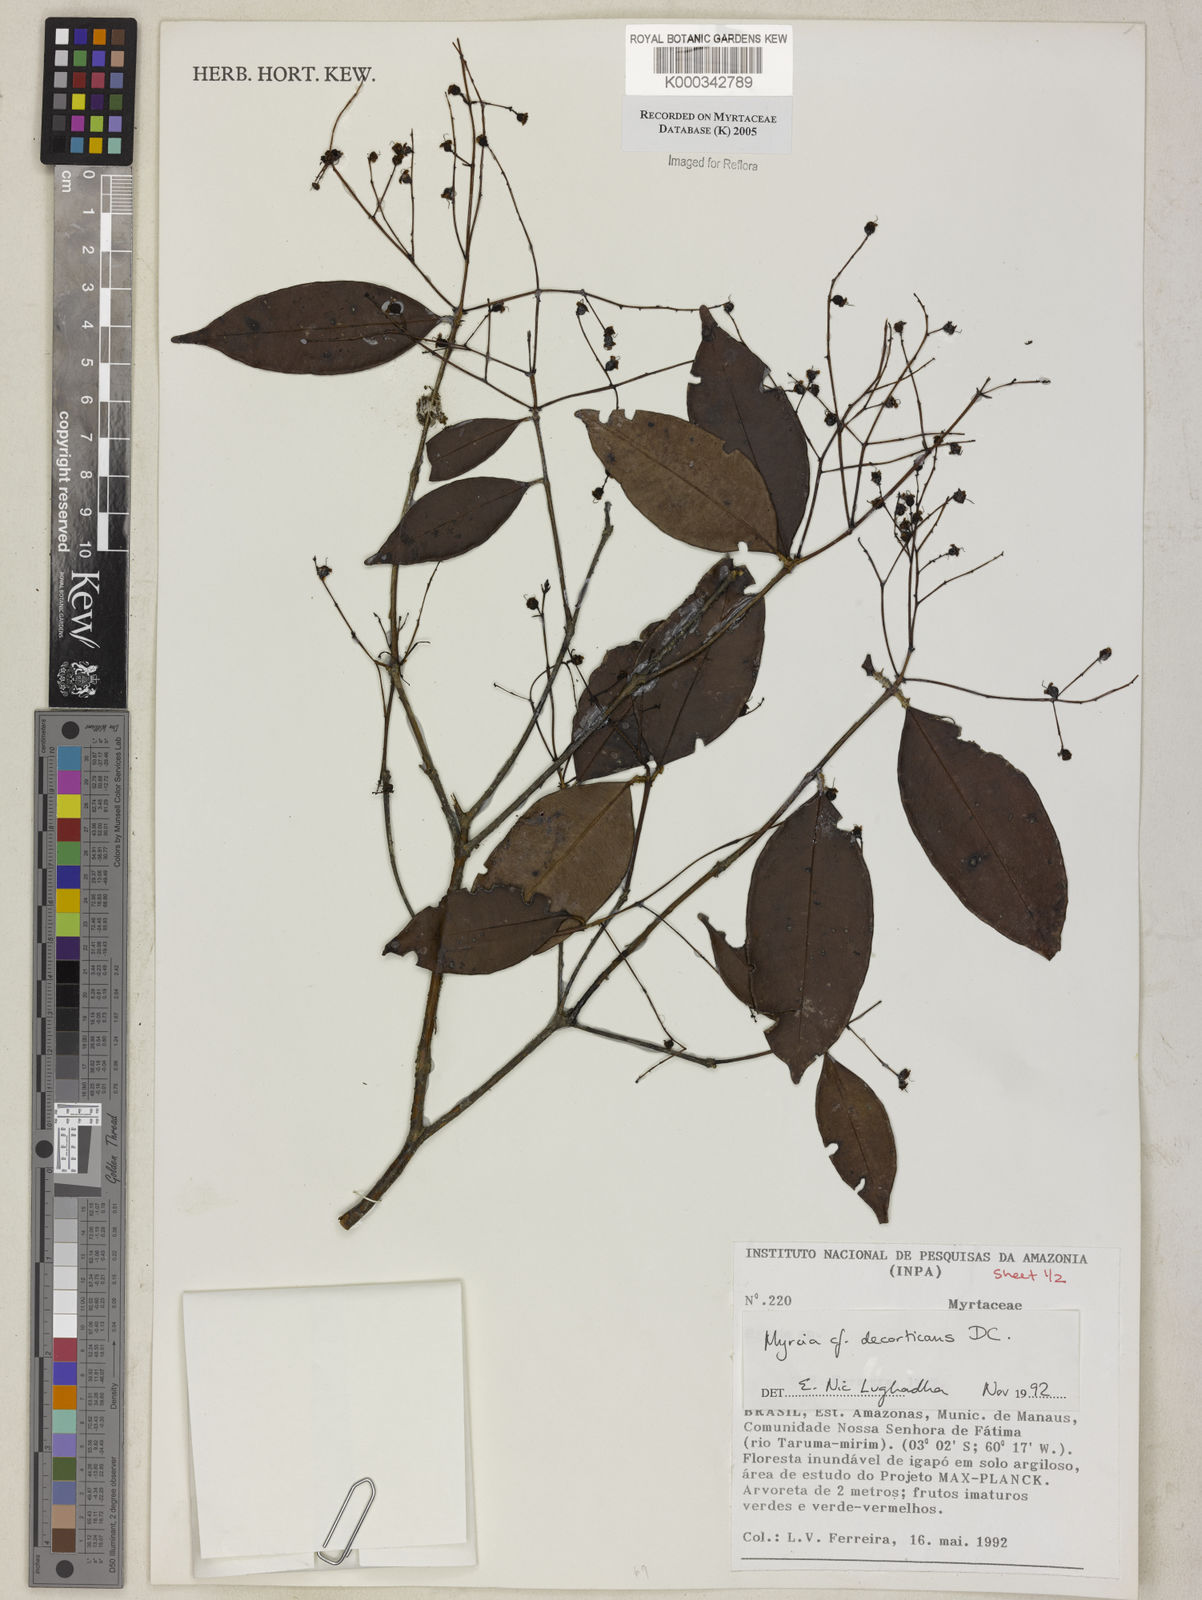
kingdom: Plantae
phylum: Tracheophyta
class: Magnoliopsida
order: Myrtales
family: Myrtaceae
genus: Myrcia
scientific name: Myrcia decorticans
